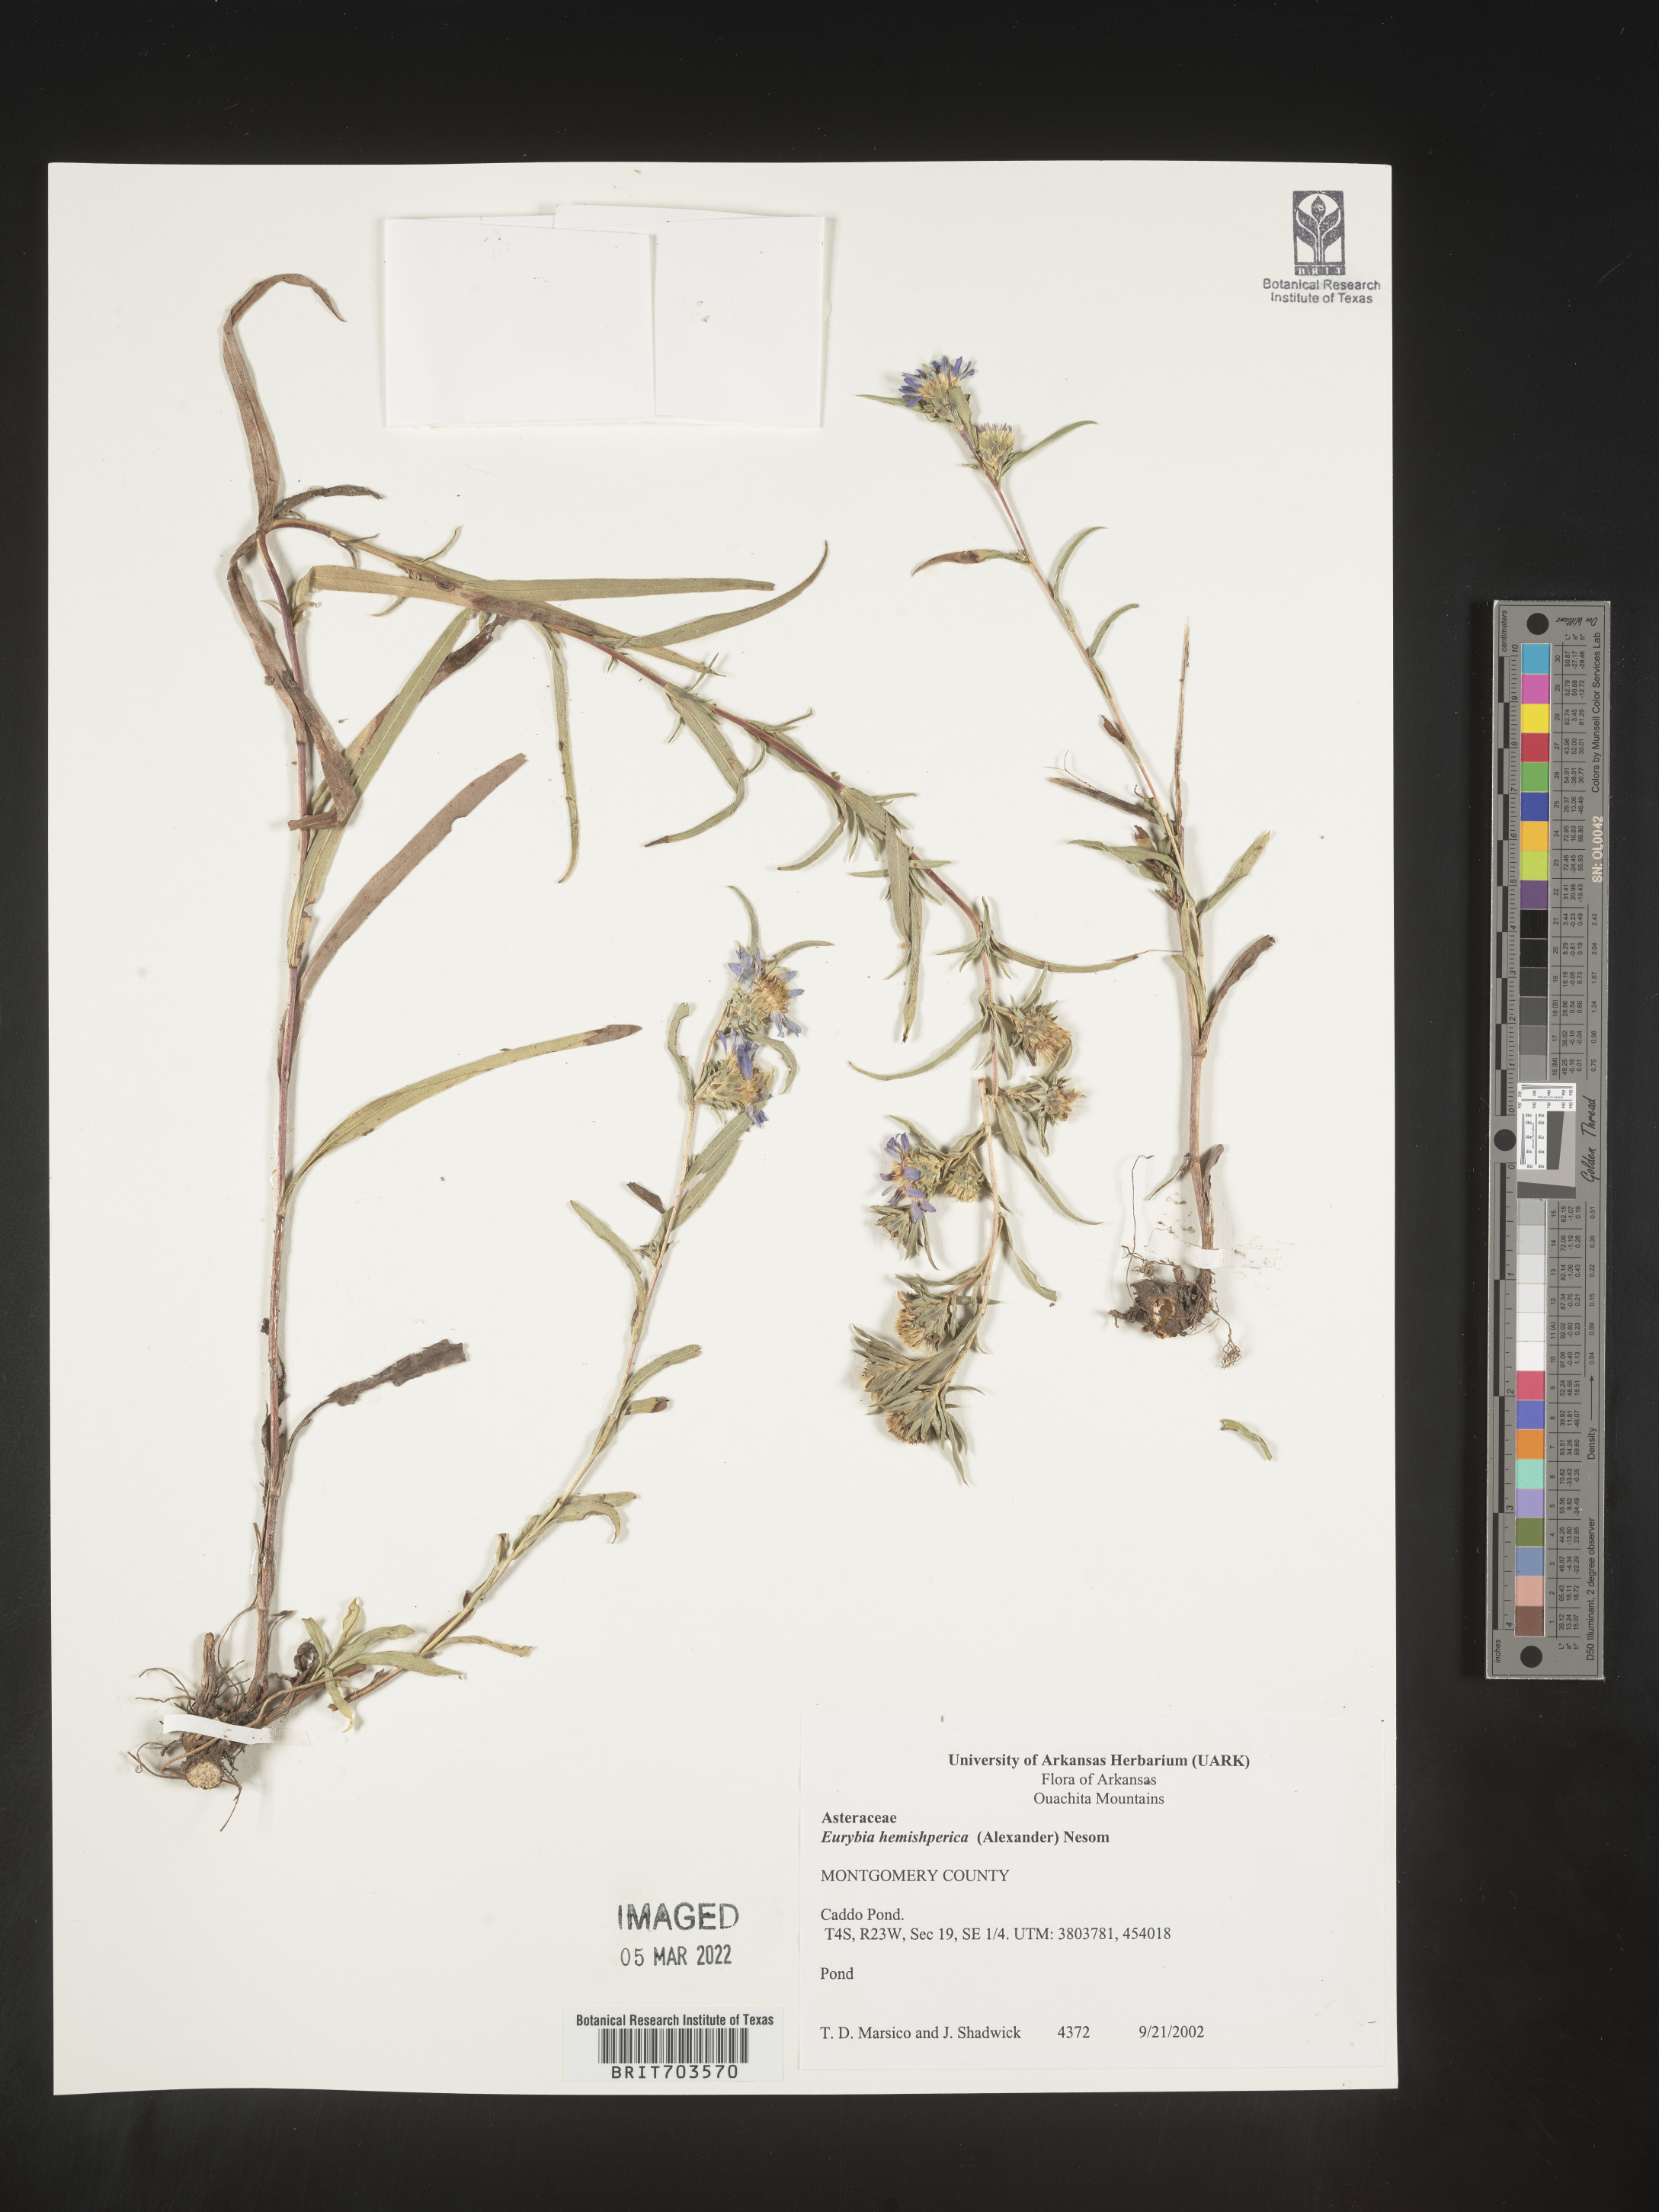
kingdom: Plantae
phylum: Tracheophyta
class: Magnoliopsida
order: Asterales
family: Asteraceae
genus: Eurybia
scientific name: Eurybia hemispherica
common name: Showy aster
